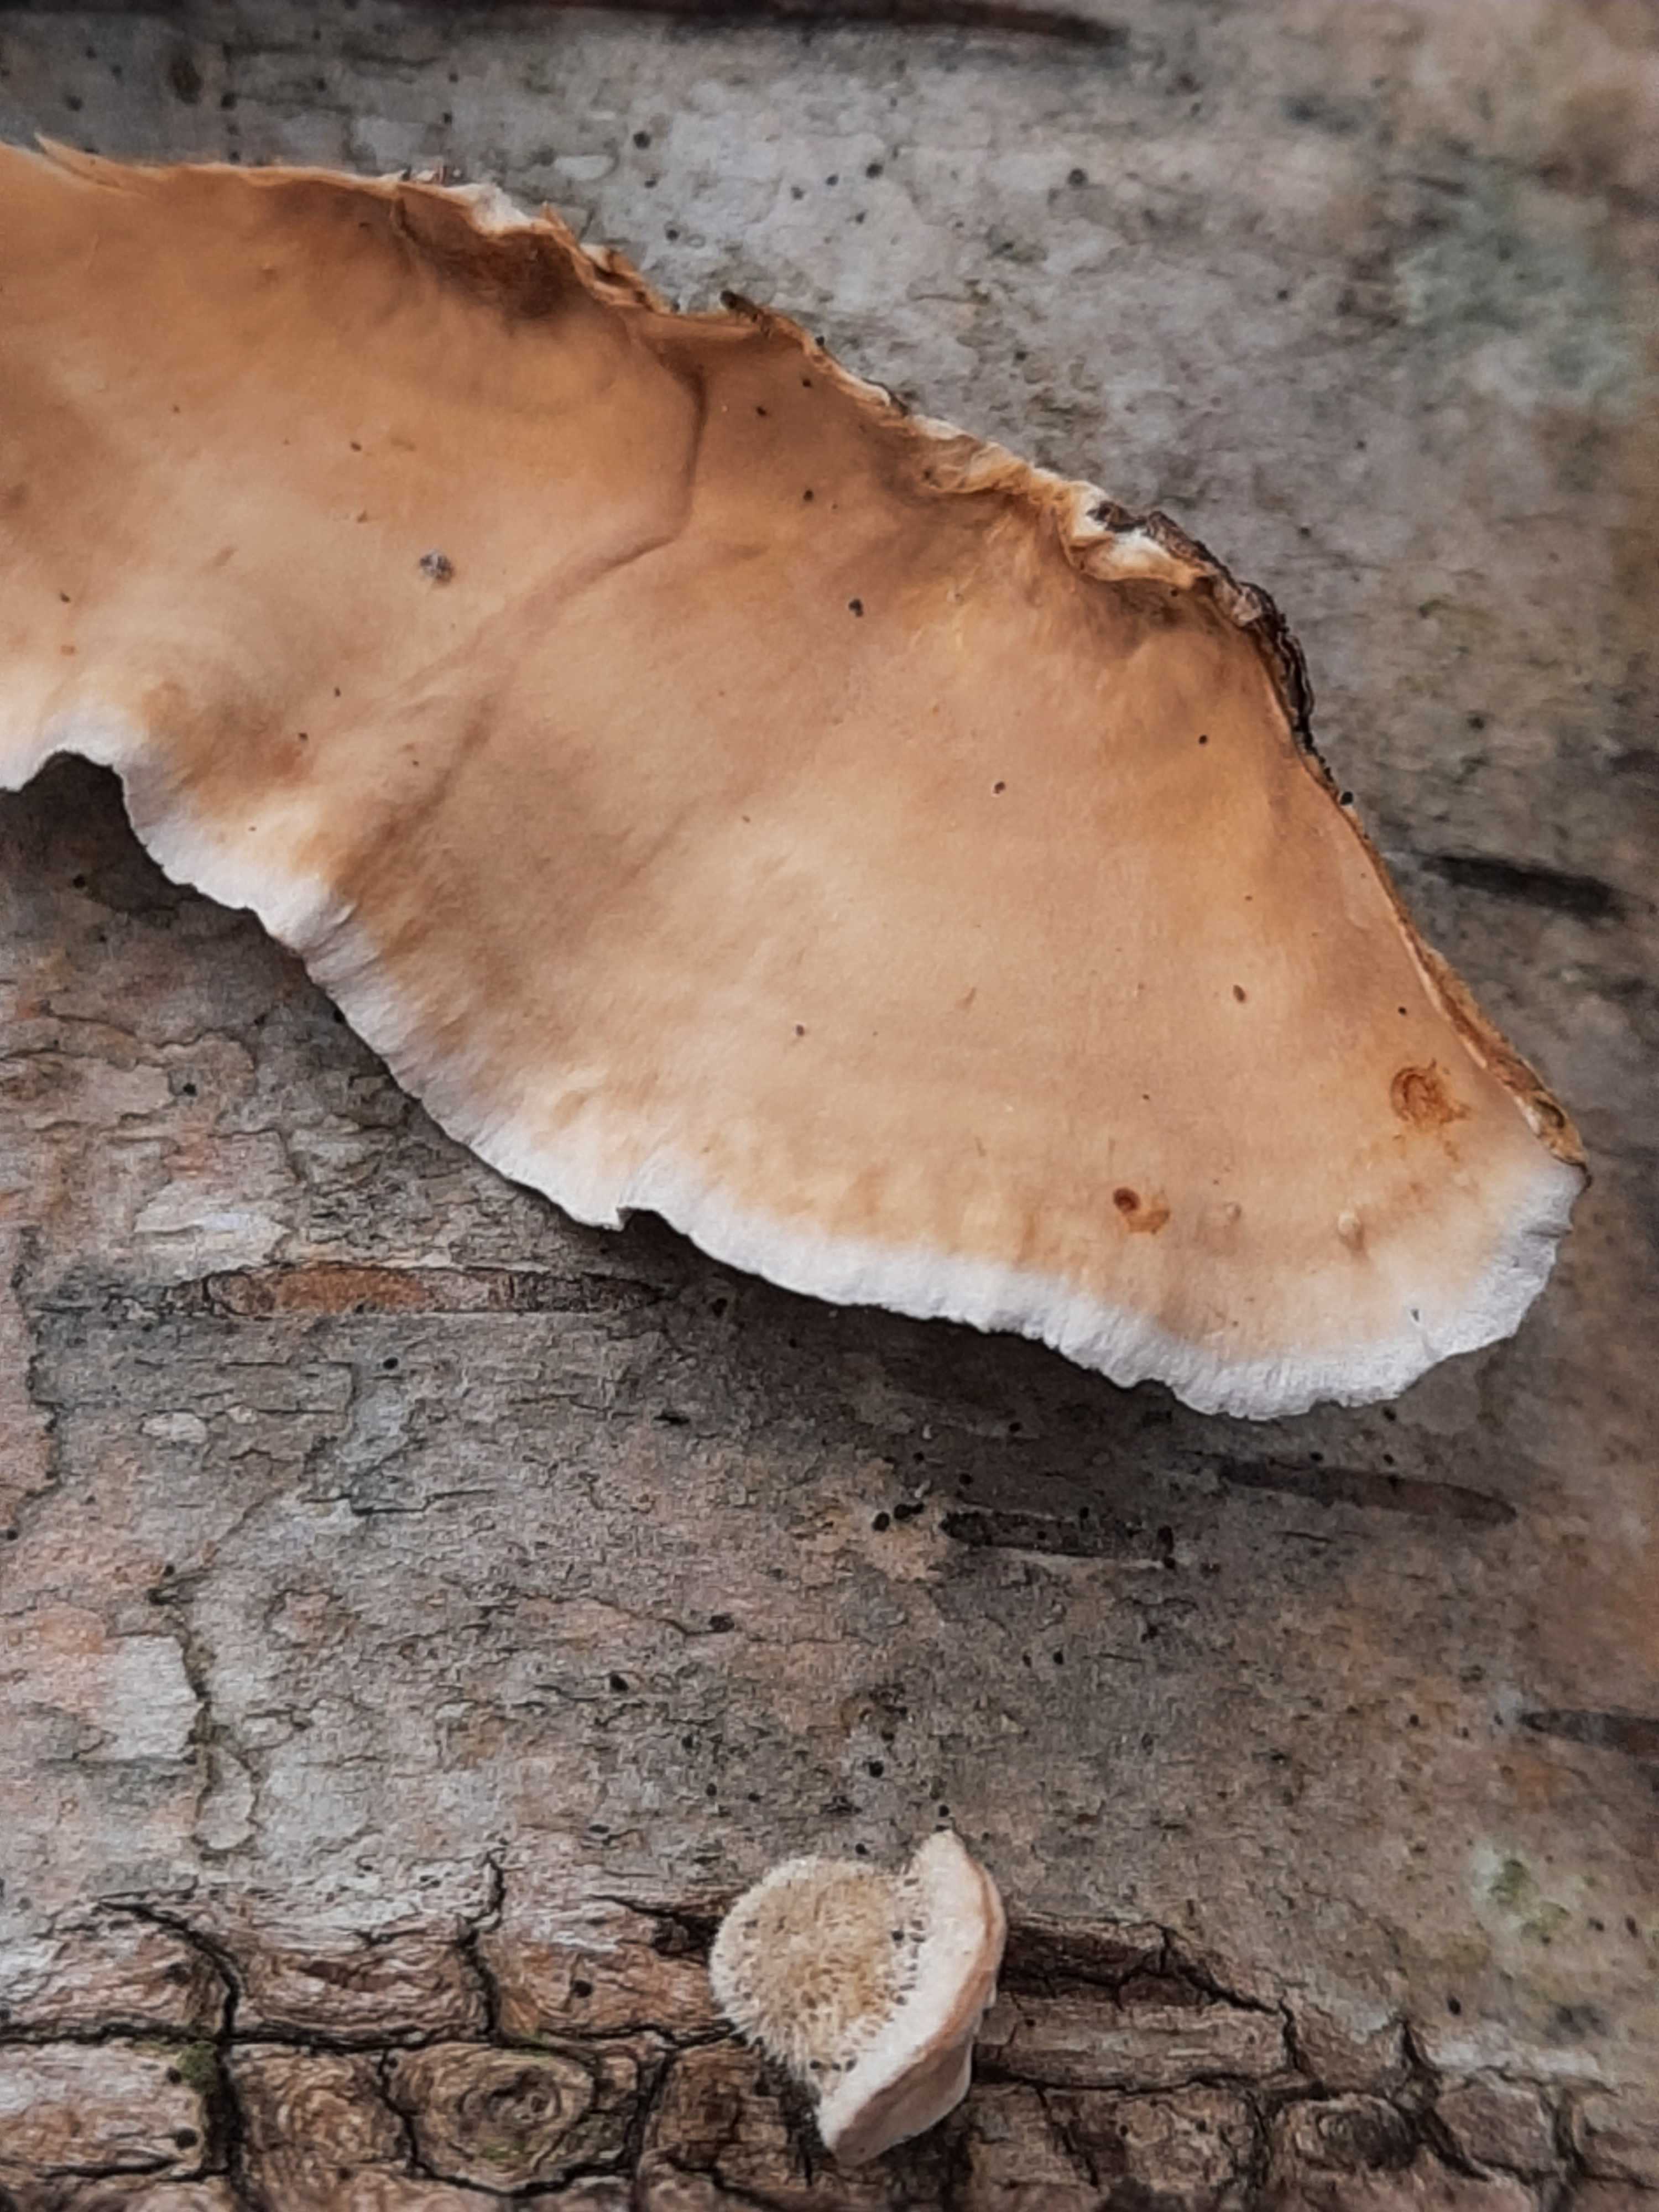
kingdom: Fungi
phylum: Basidiomycota
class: Agaricomycetes
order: Russulales
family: Stereaceae
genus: Stereum
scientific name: Stereum hirsutum
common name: håret lædersvamp
